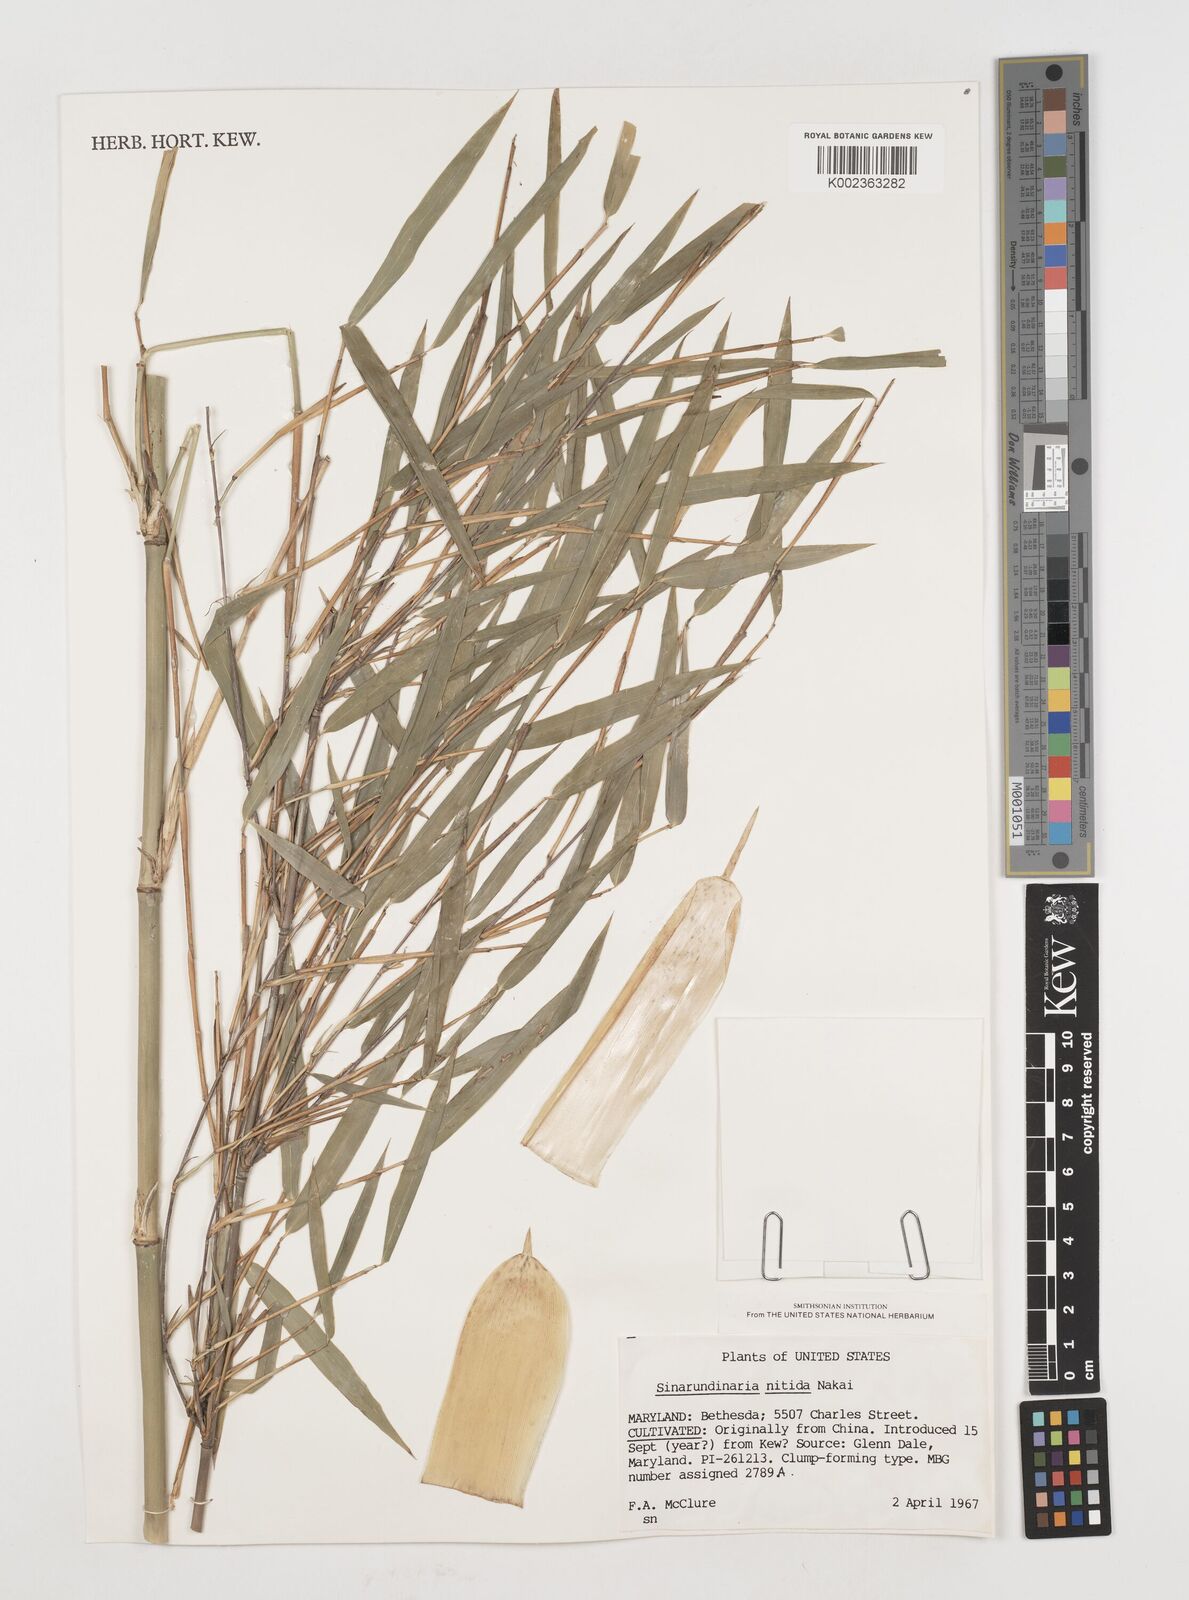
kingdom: Plantae
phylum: Tracheophyta
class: Liliopsida
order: Poales
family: Poaceae
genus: Fargesia
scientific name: Fargesia nitida ex
